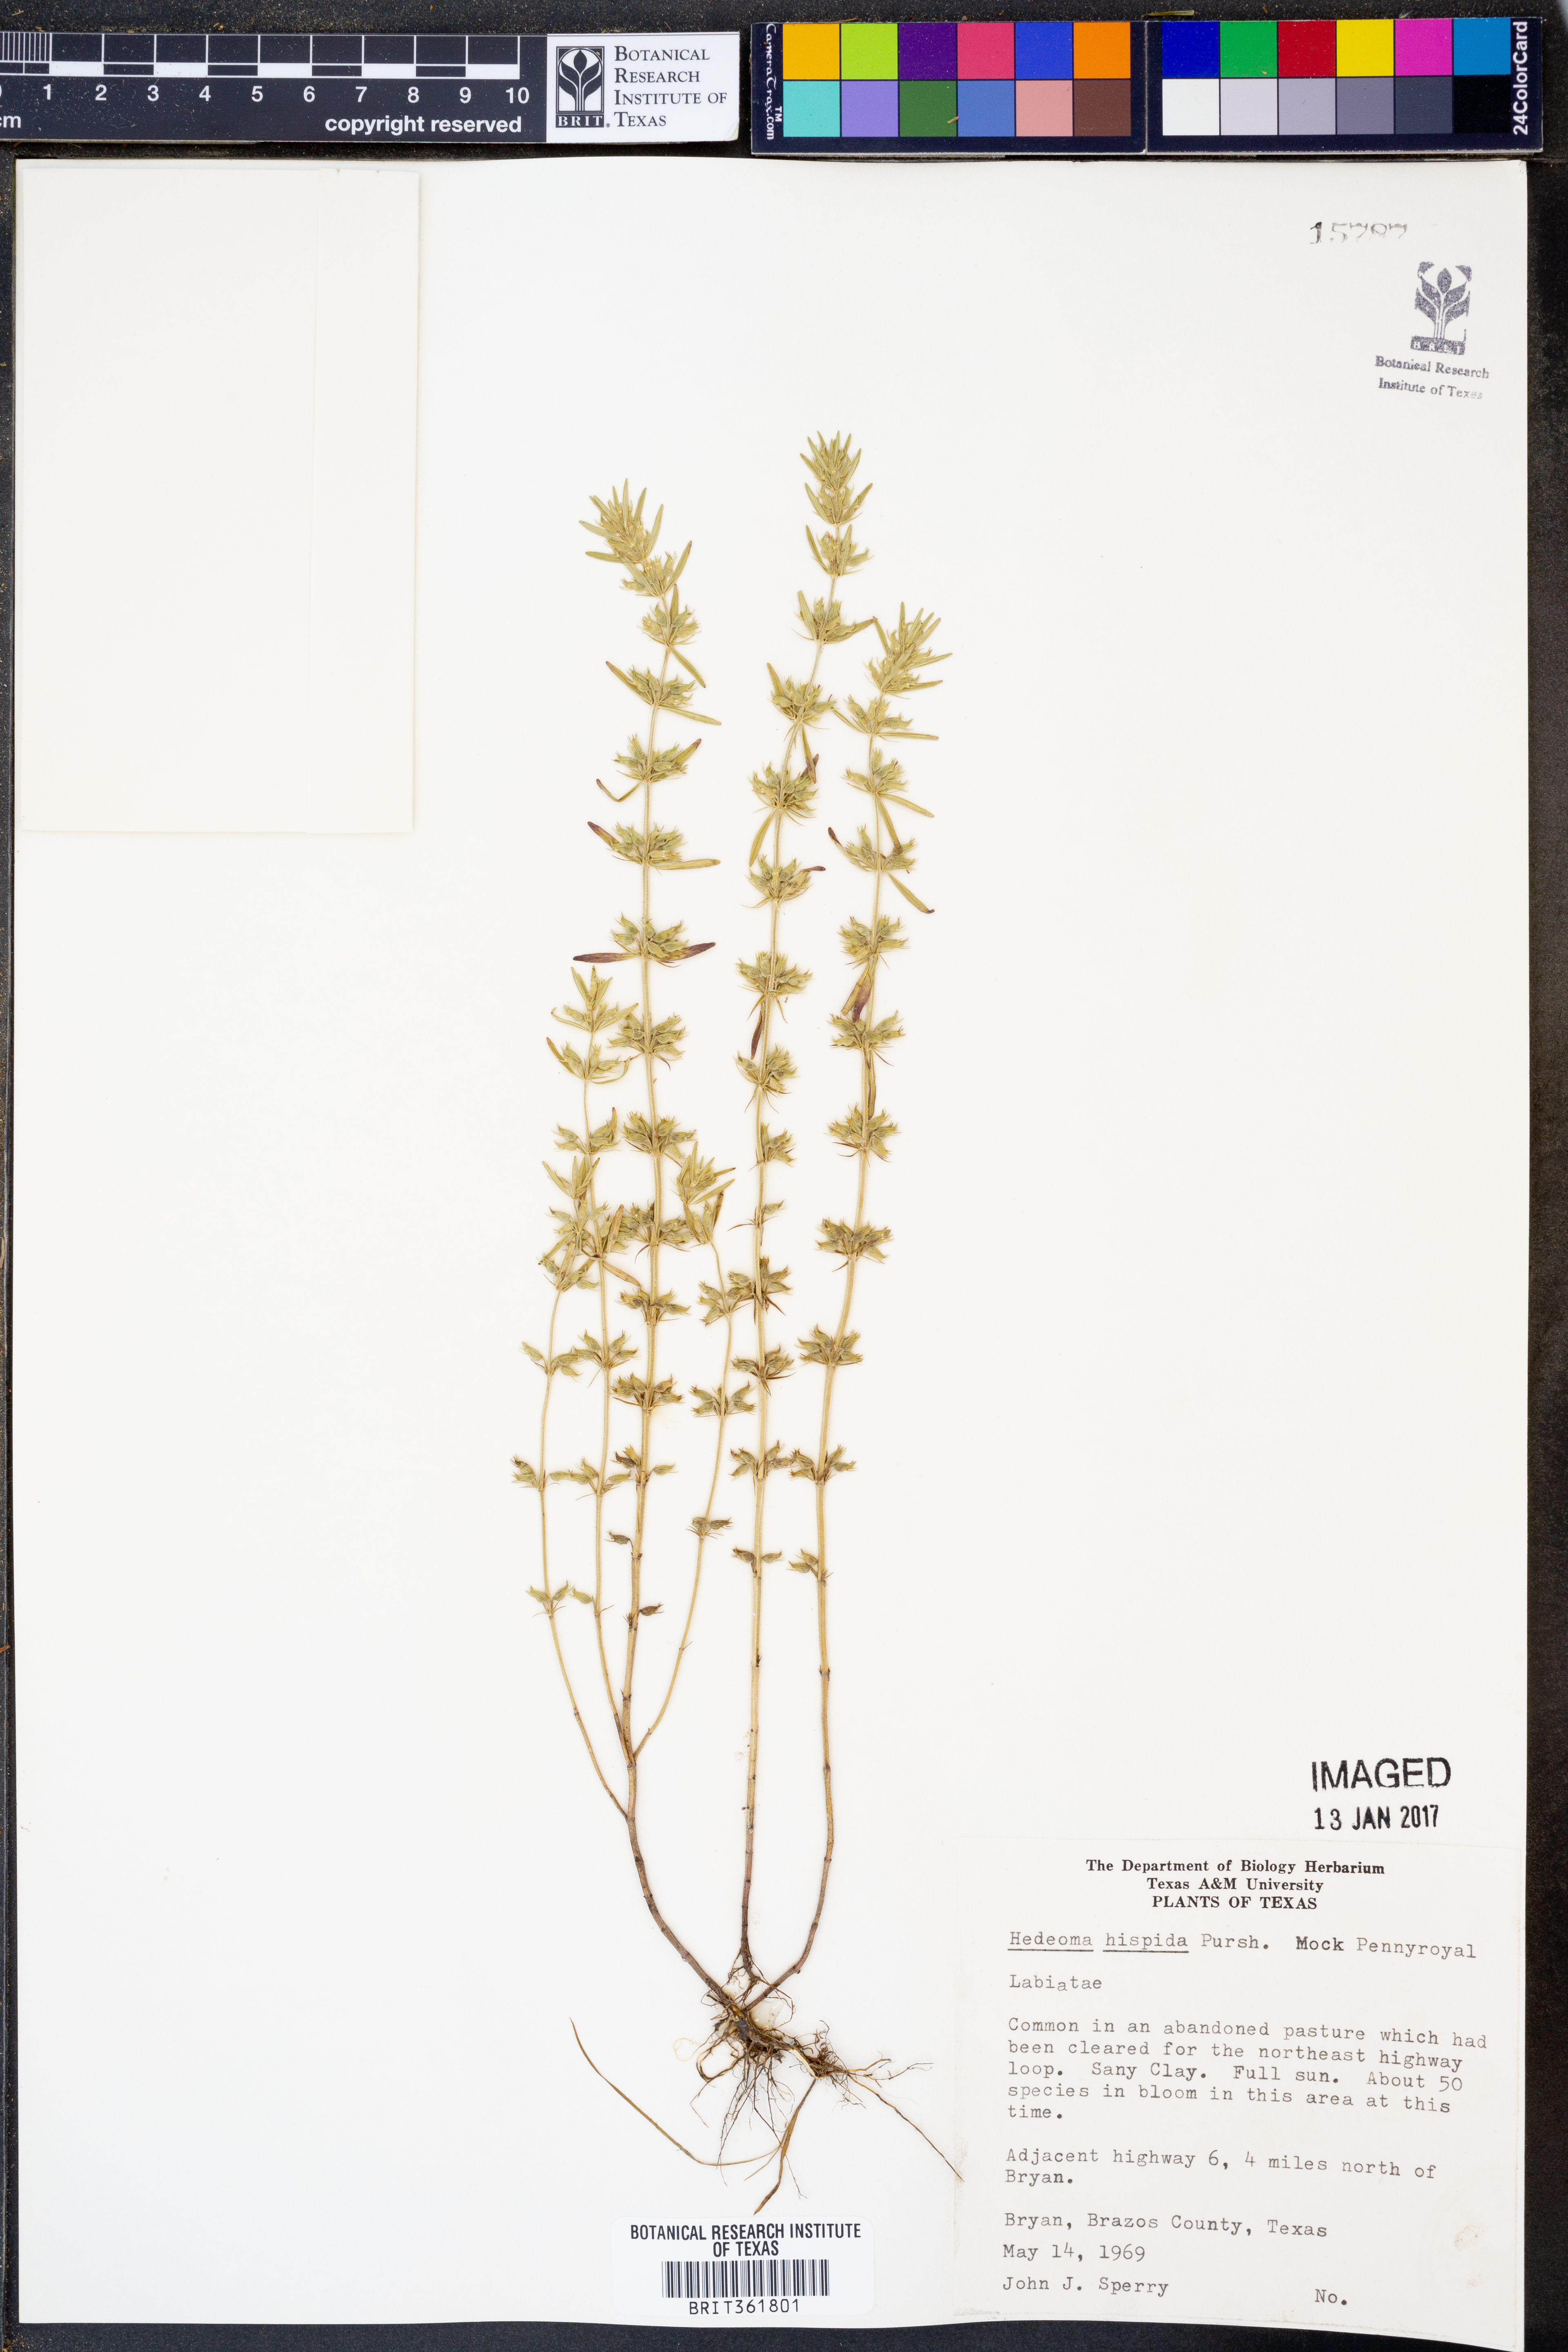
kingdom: Plantae
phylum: Tracheophyta
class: Magnoliopsida
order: Lamiales
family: Lamiaceae
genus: Hedeoma
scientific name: Hedeoma hispida
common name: Mock pennyroyal
